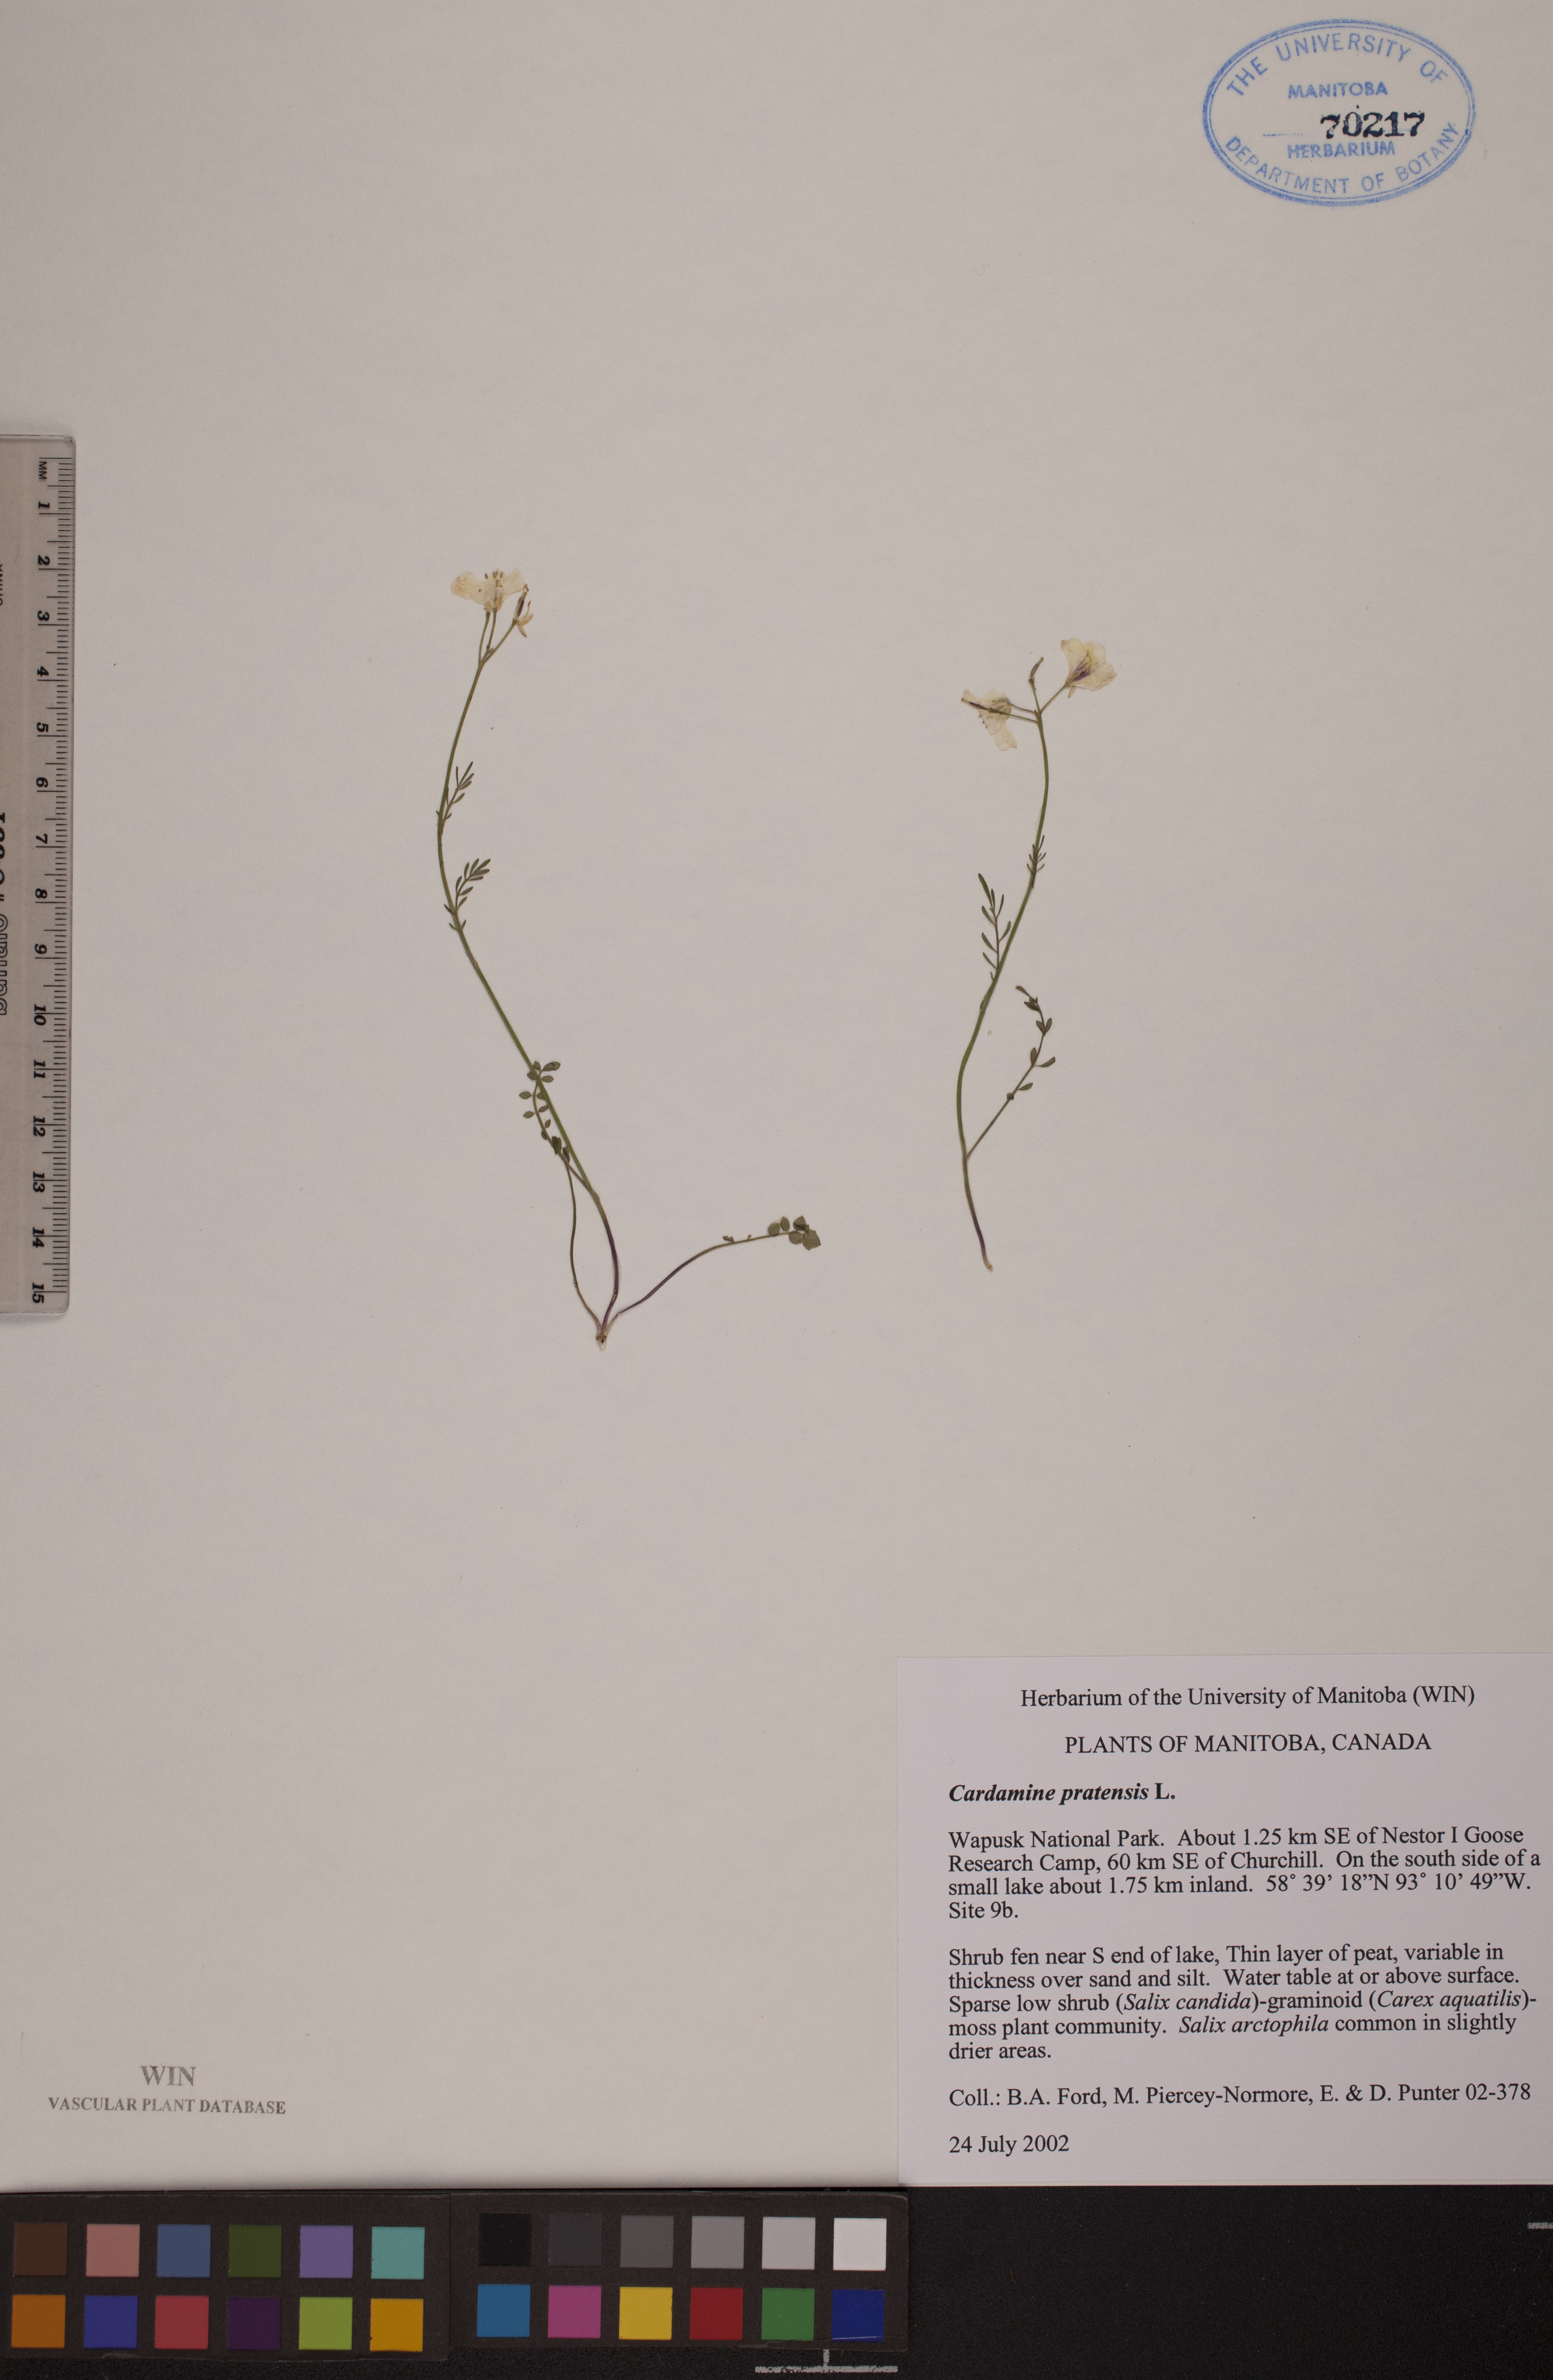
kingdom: Plantae
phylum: Tracheophyta
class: Magnoliopsida
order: Brassicales
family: Brassicaceae
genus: Cardamine
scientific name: Cardamine nymanii
